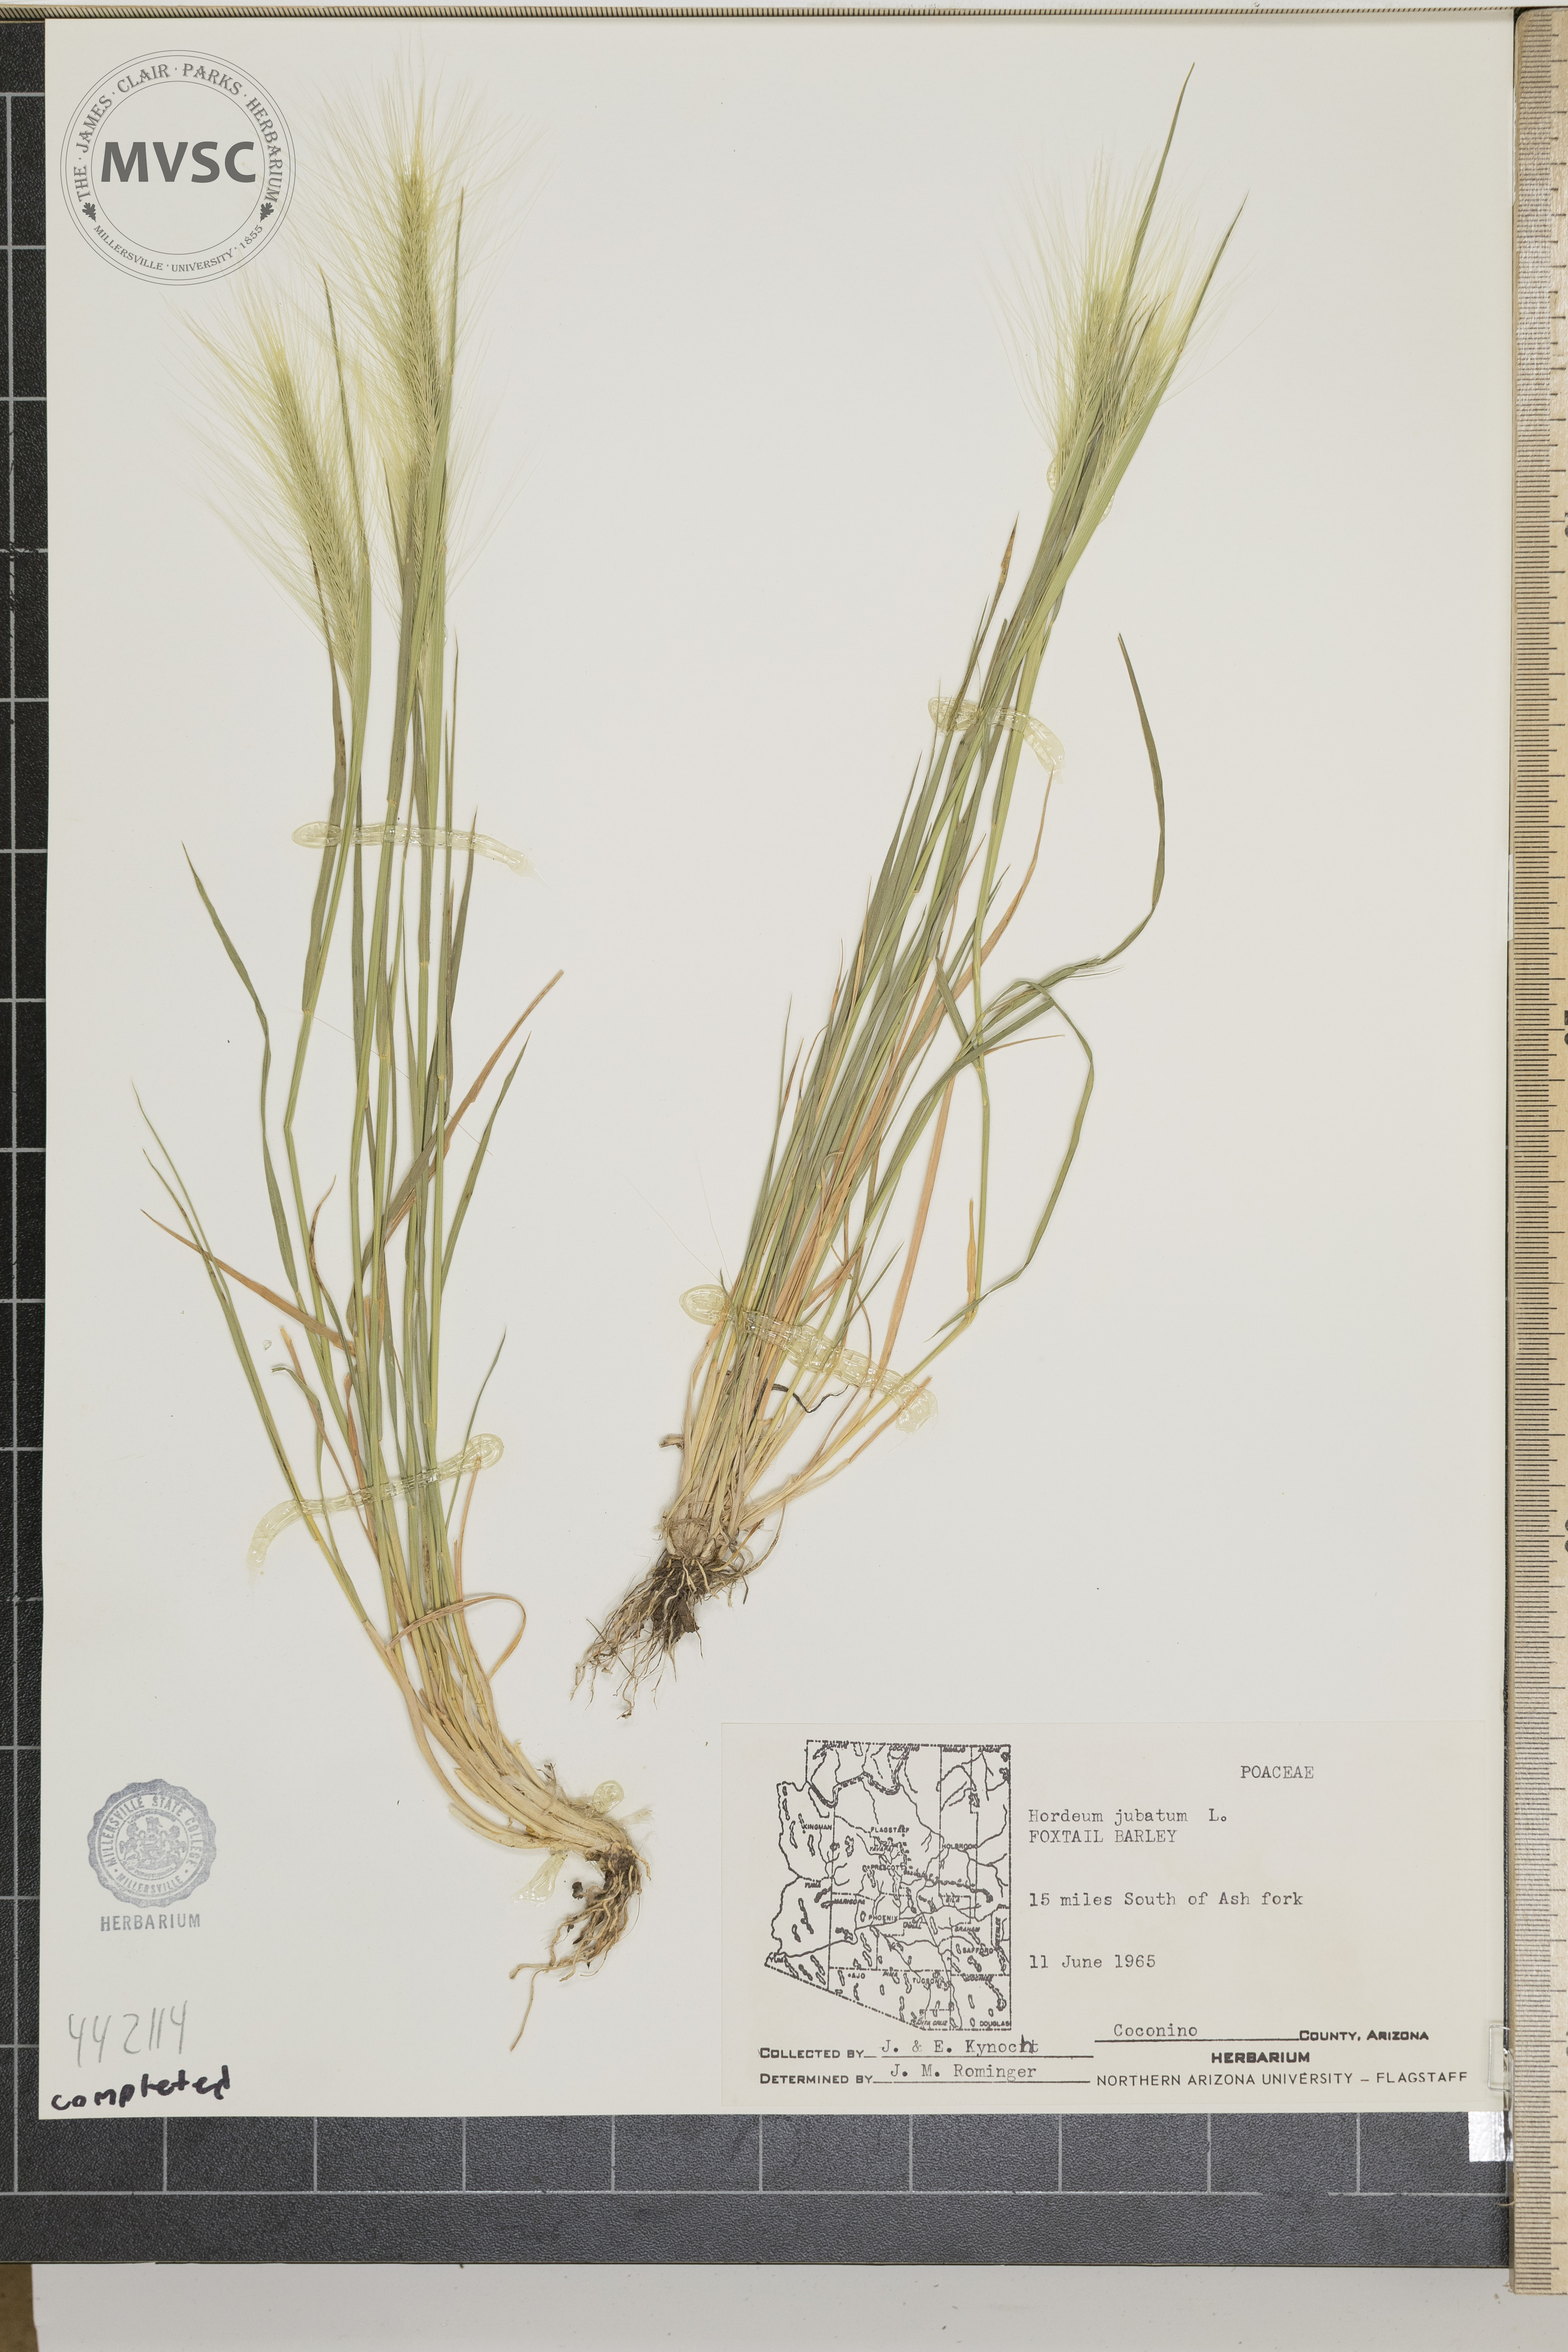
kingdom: Plantae
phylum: Tracheophyta
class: Liliopsida
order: Poales
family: Poaceae
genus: Hordeum
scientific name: Hordeum jubatum
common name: Foxtail barley
